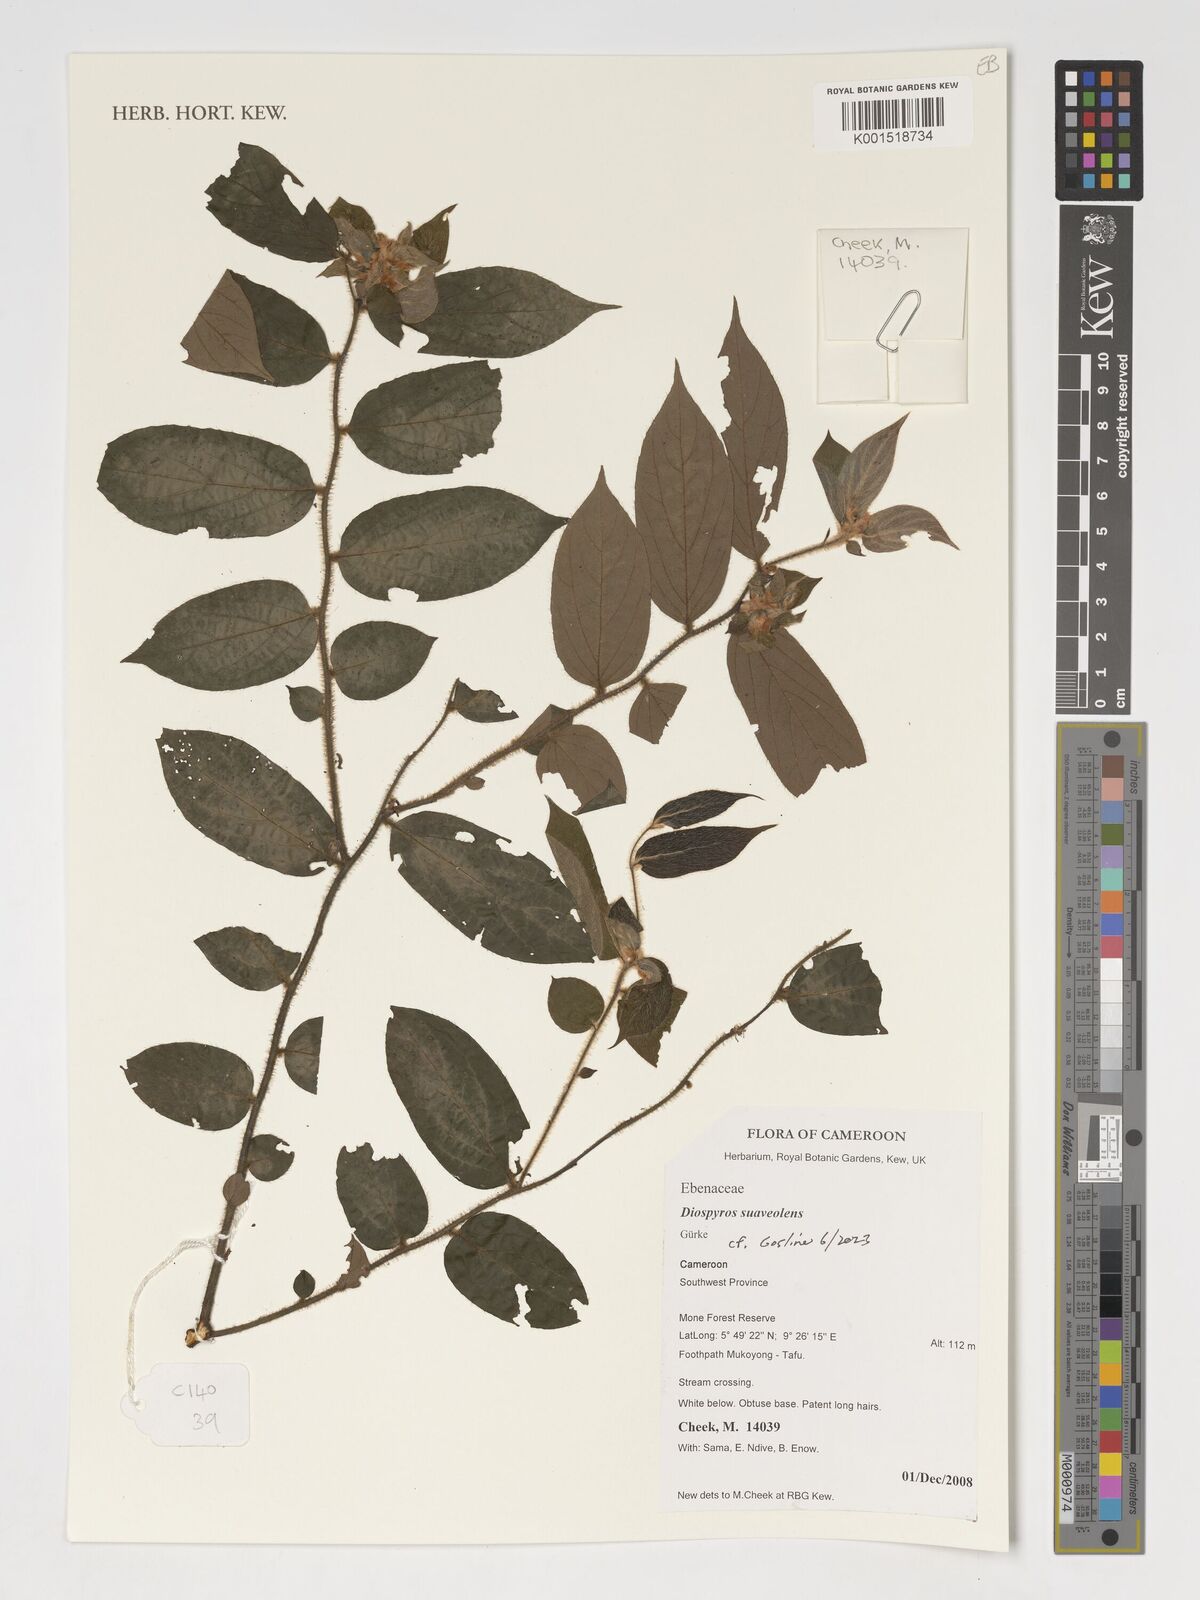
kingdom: Plantae
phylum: Tracheophyta
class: Magnoliopsida
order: Ericales
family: Ebenaceae
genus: Diospyros
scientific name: Diospyros suaveolens
